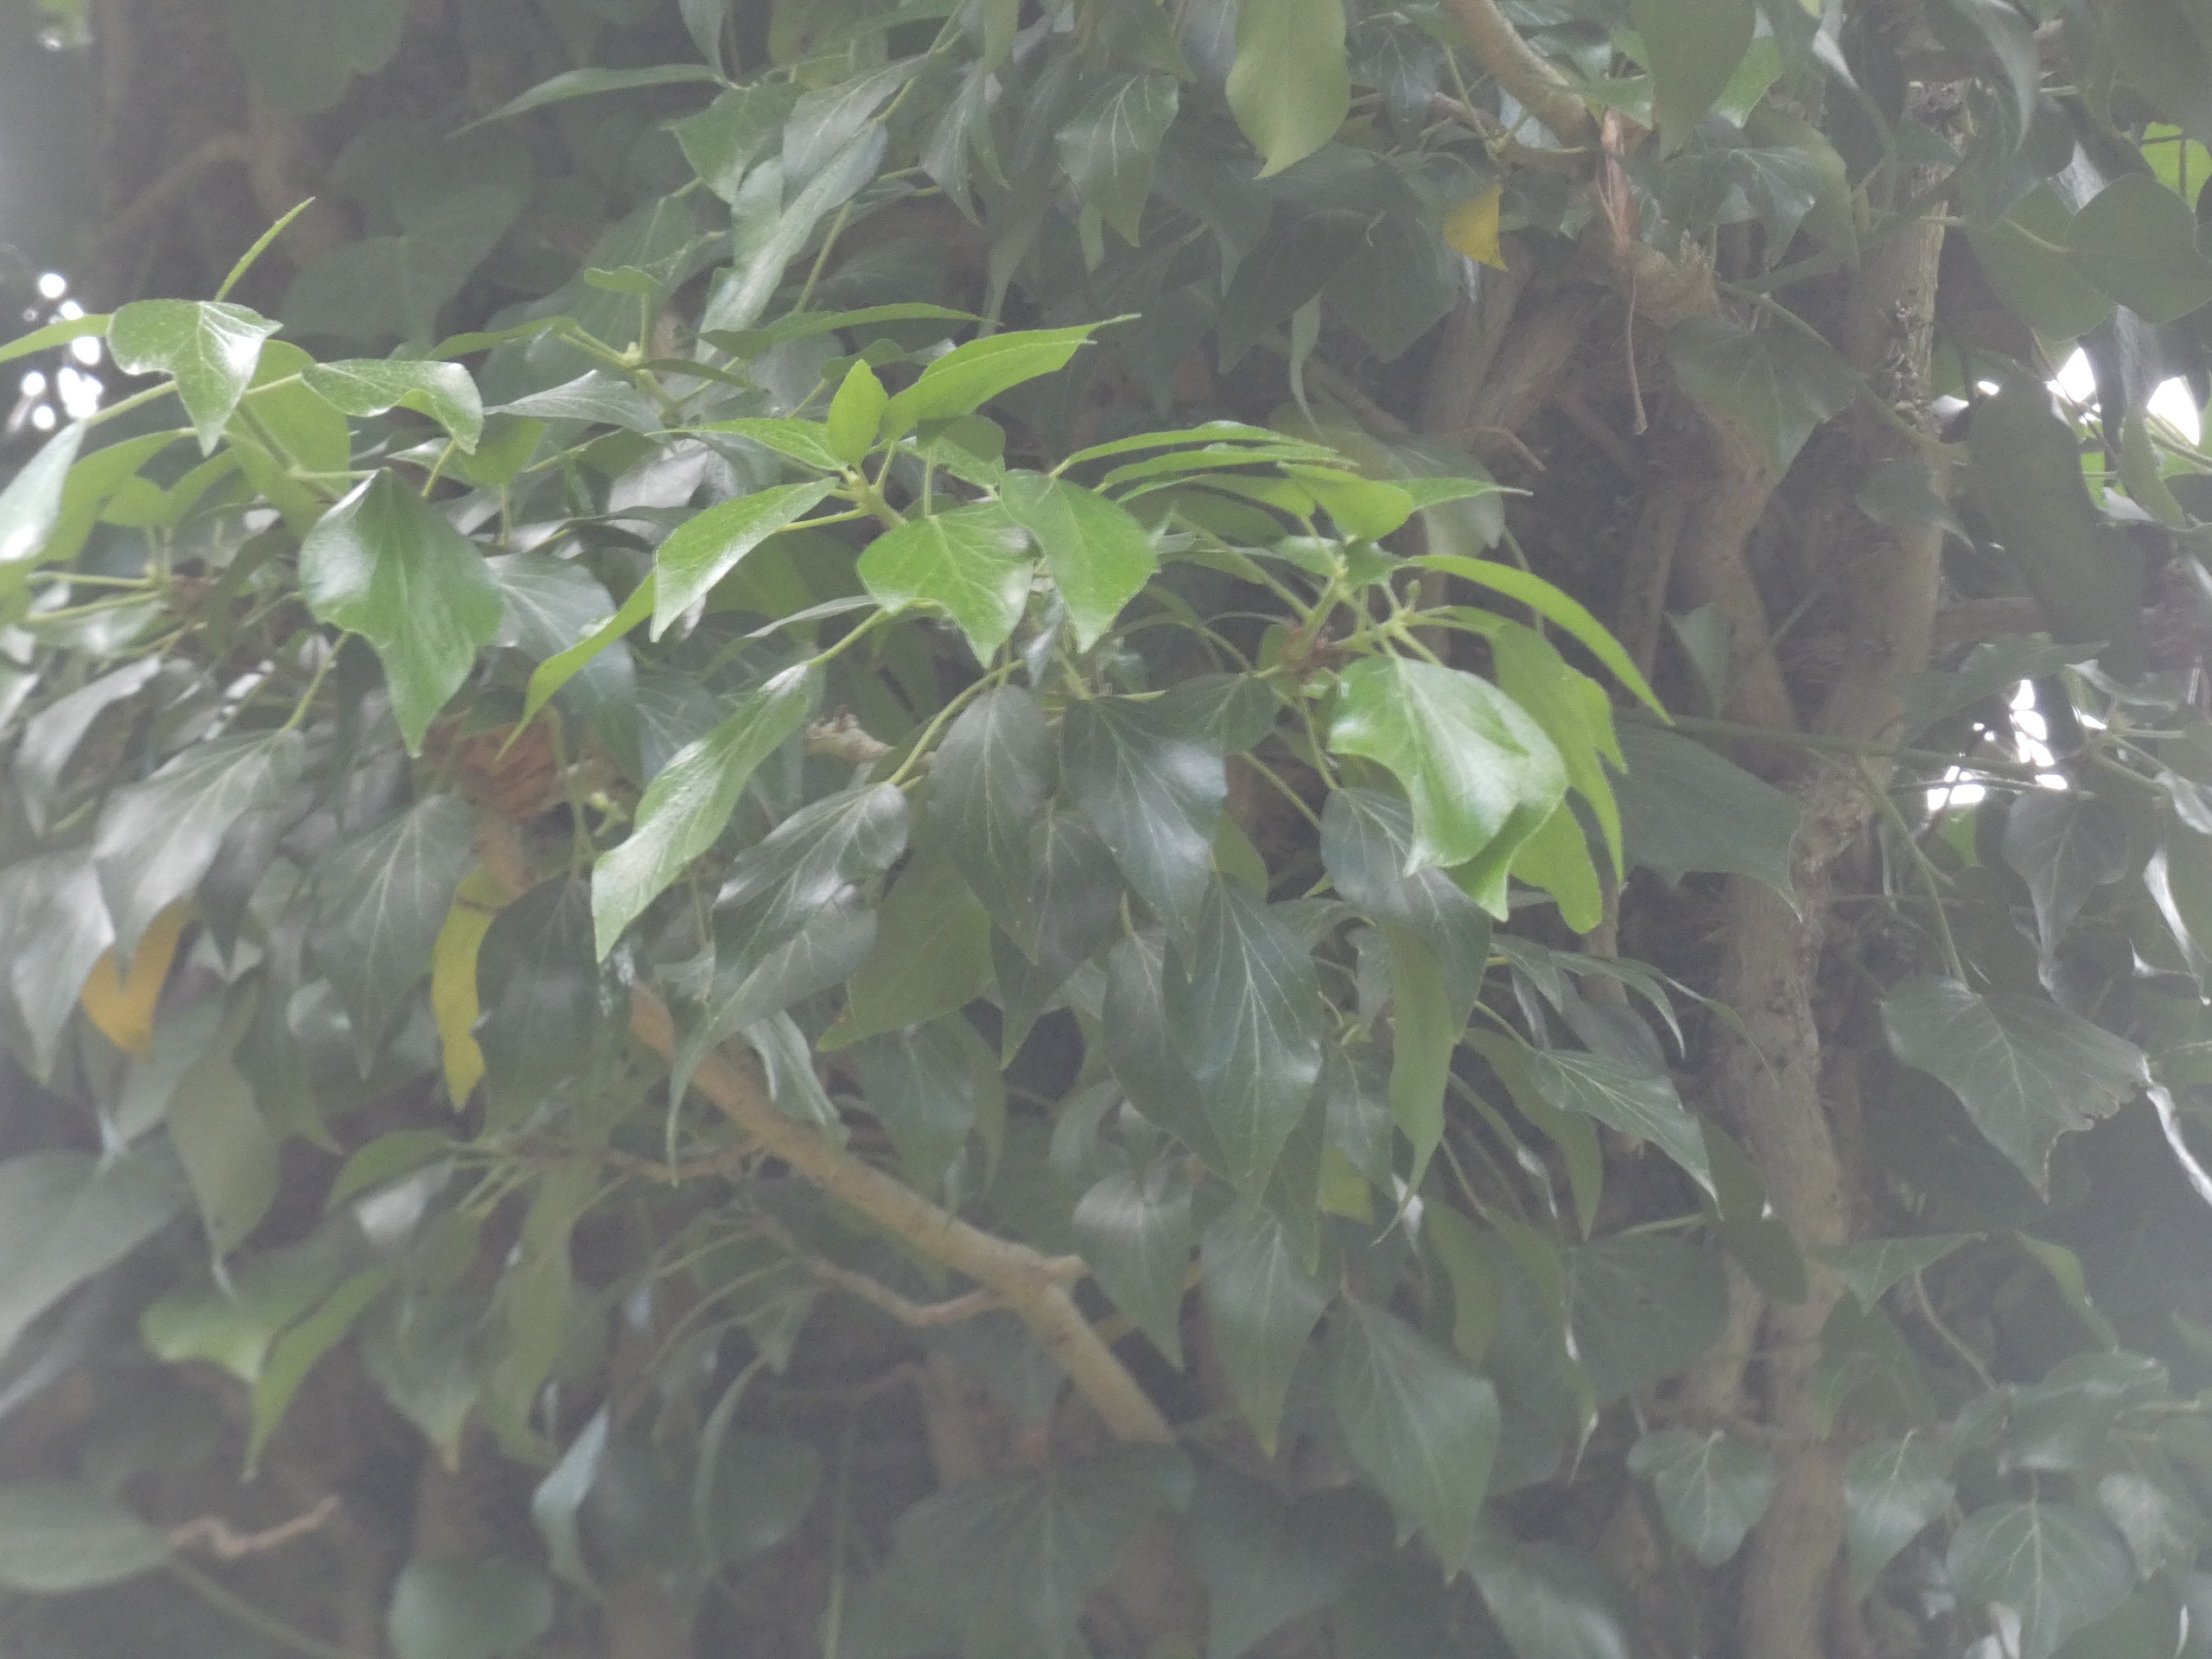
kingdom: Plantae
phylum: Tracheophyta
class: Magnoliopsida
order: Apiales
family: Araliaceae
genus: Hedera
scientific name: Hedera helix
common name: Vedbend
